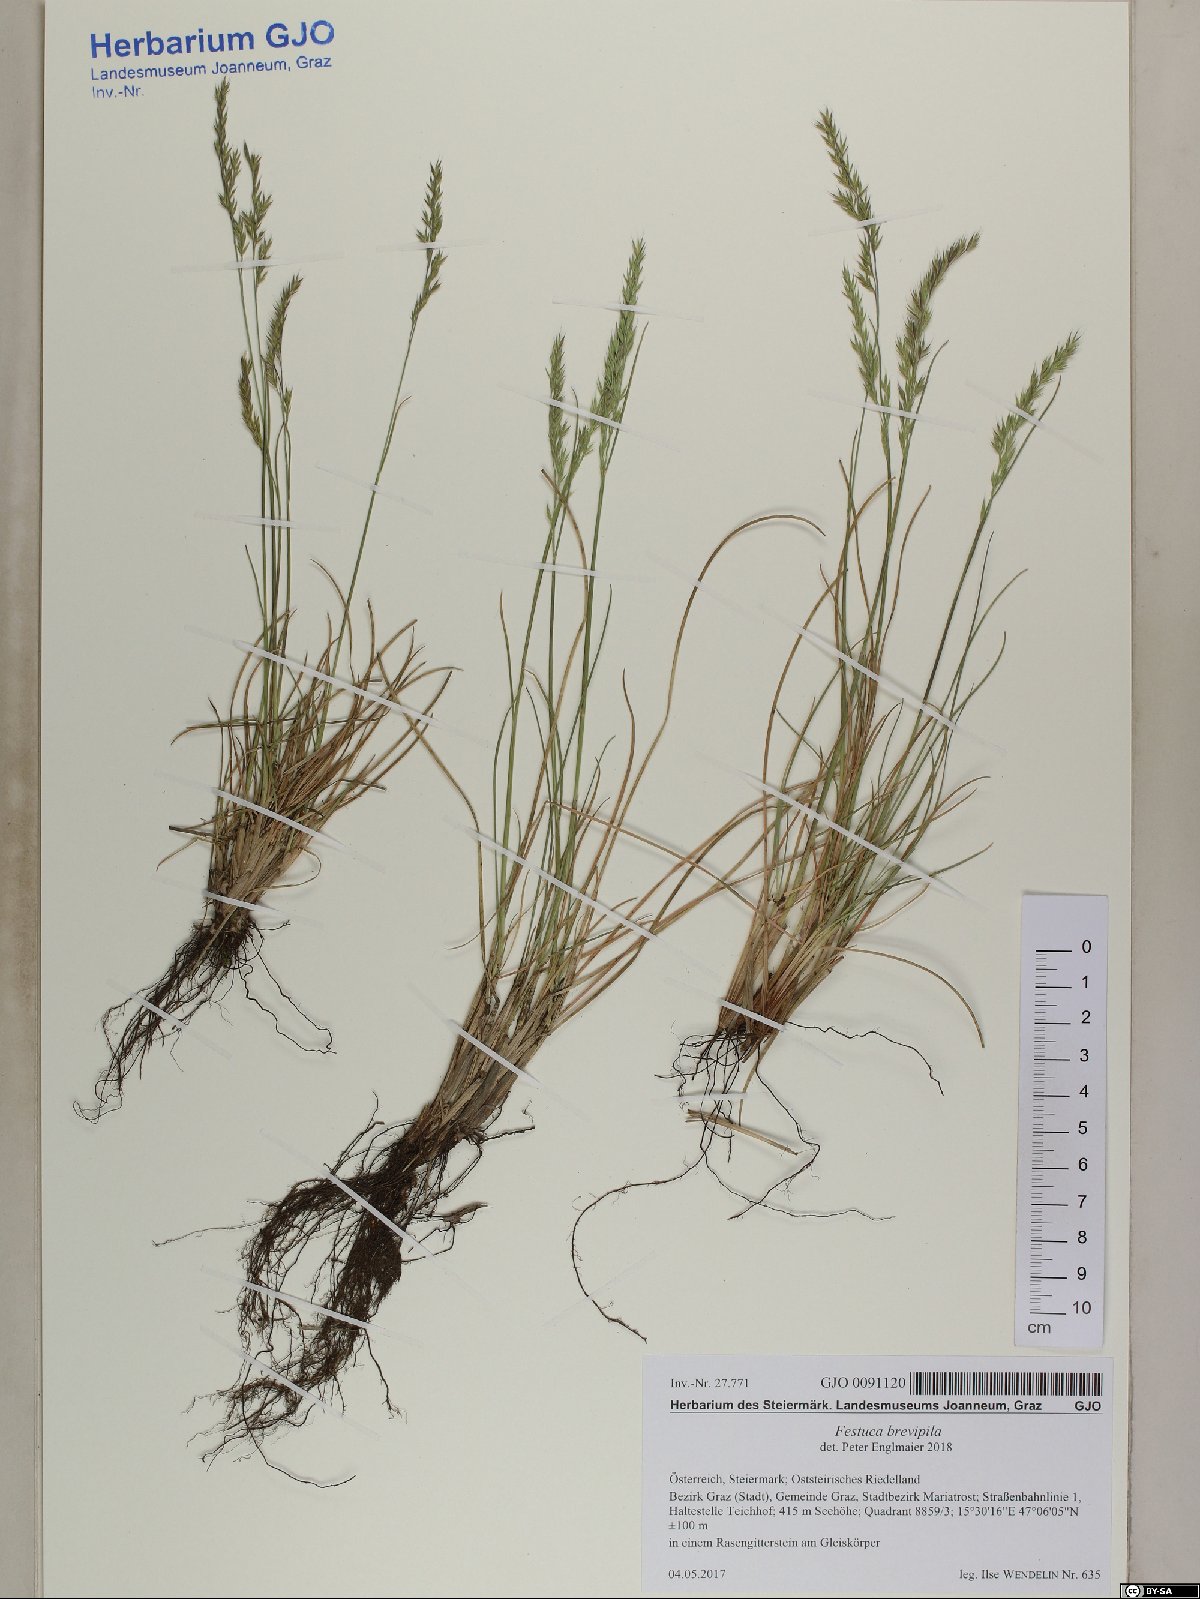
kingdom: Plantae
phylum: Tracheophyta
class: Liliopsida
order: Poales
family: Poaceae
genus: Festuca
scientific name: Festuca trachyphylla
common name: Hard fescue
